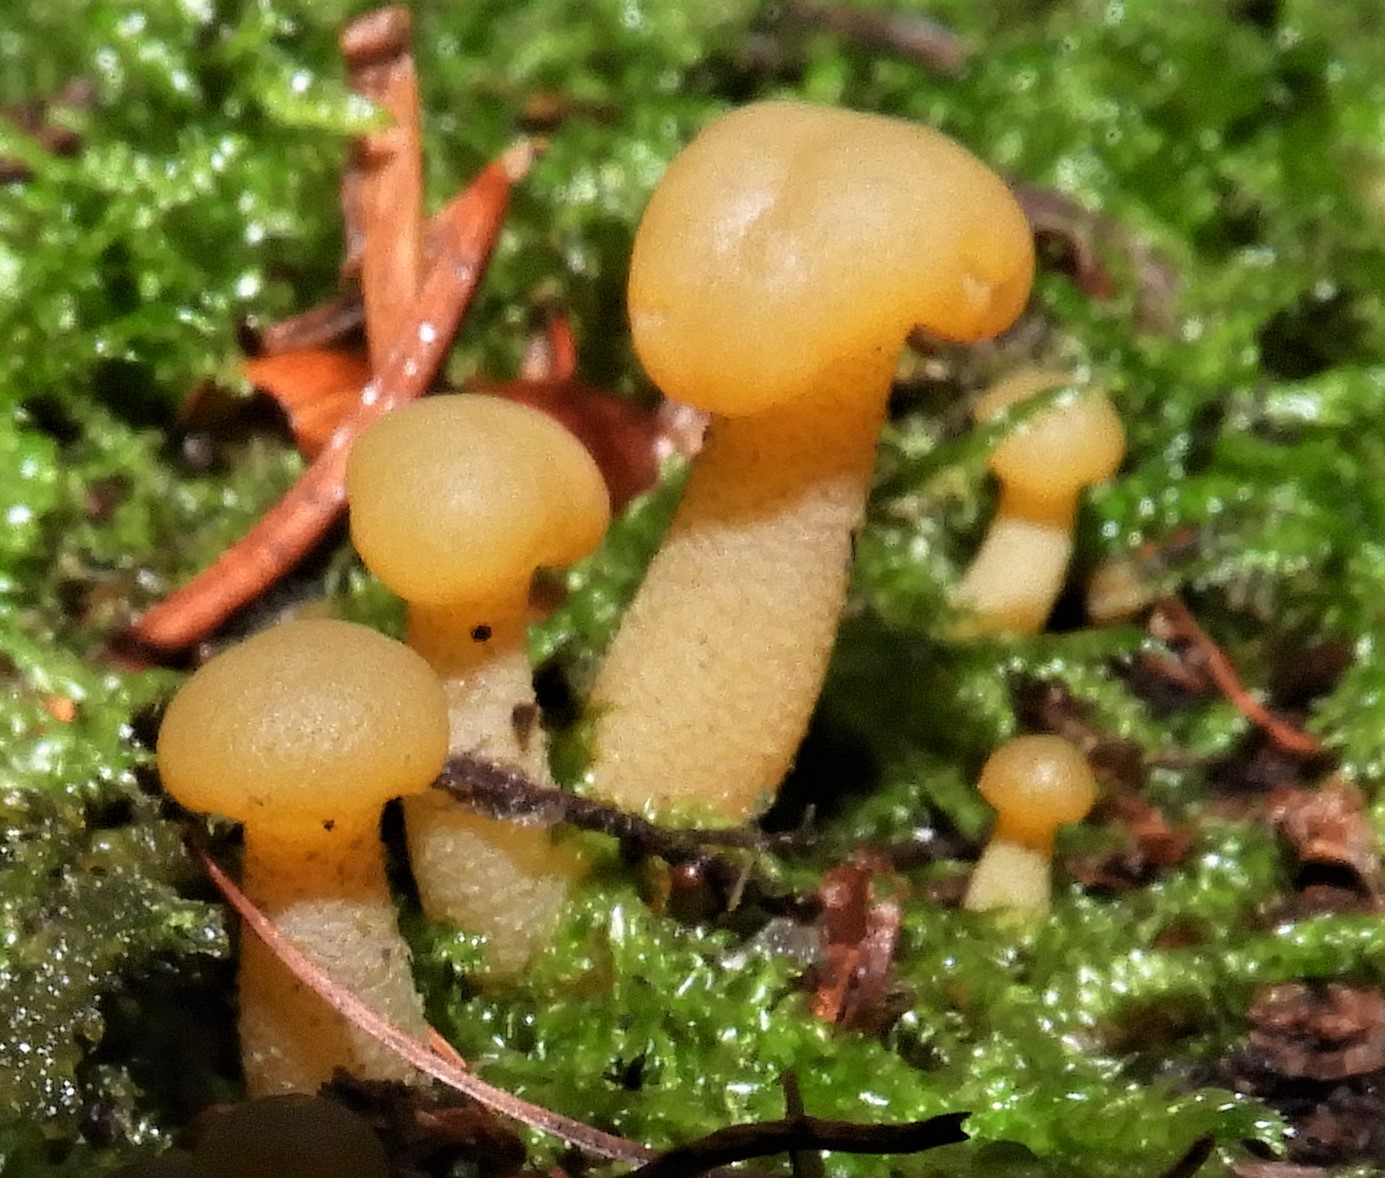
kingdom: Fungi
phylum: Ascomycota
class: Leotiomycetes
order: Leotiales
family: Leotiaceae
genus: Leotia
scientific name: Leotia lubrica
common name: ravsvamp
